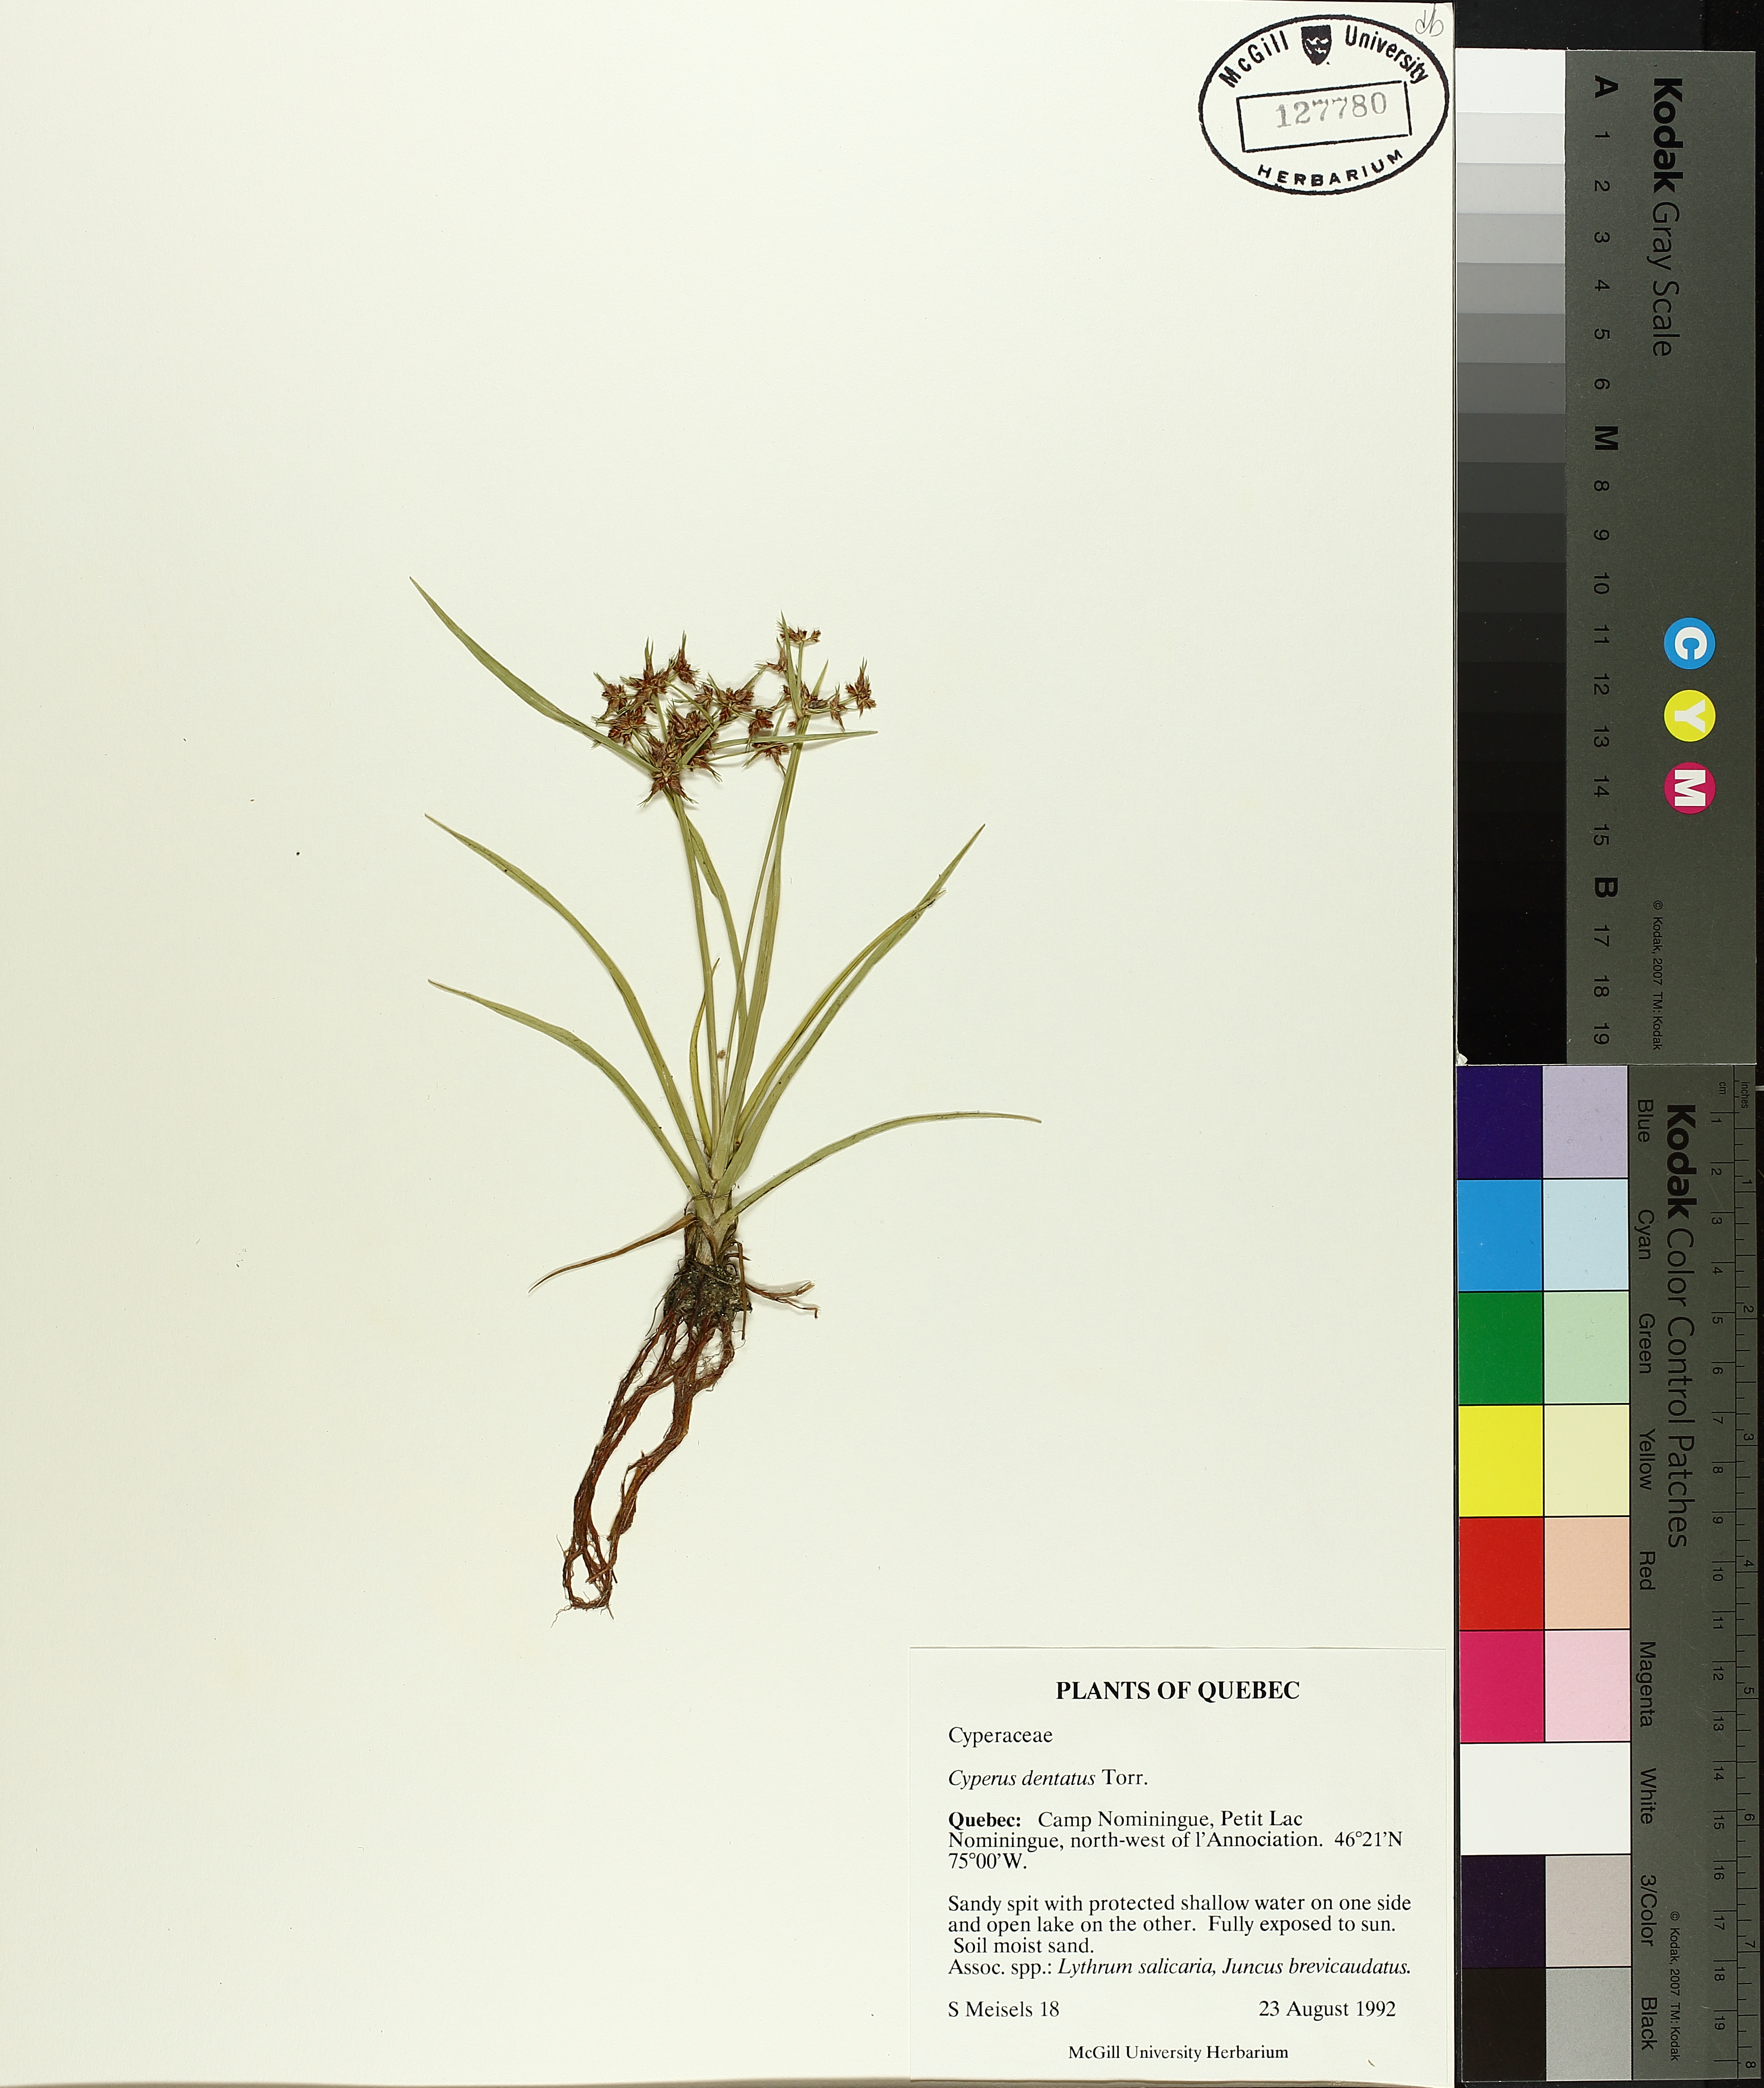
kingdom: Plantae
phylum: Tracheophyta
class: Liliopsida
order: Poales
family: Cyperaceae
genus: Cyperus
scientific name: Cyperus dentatus
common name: Dentate umbrella sedge
